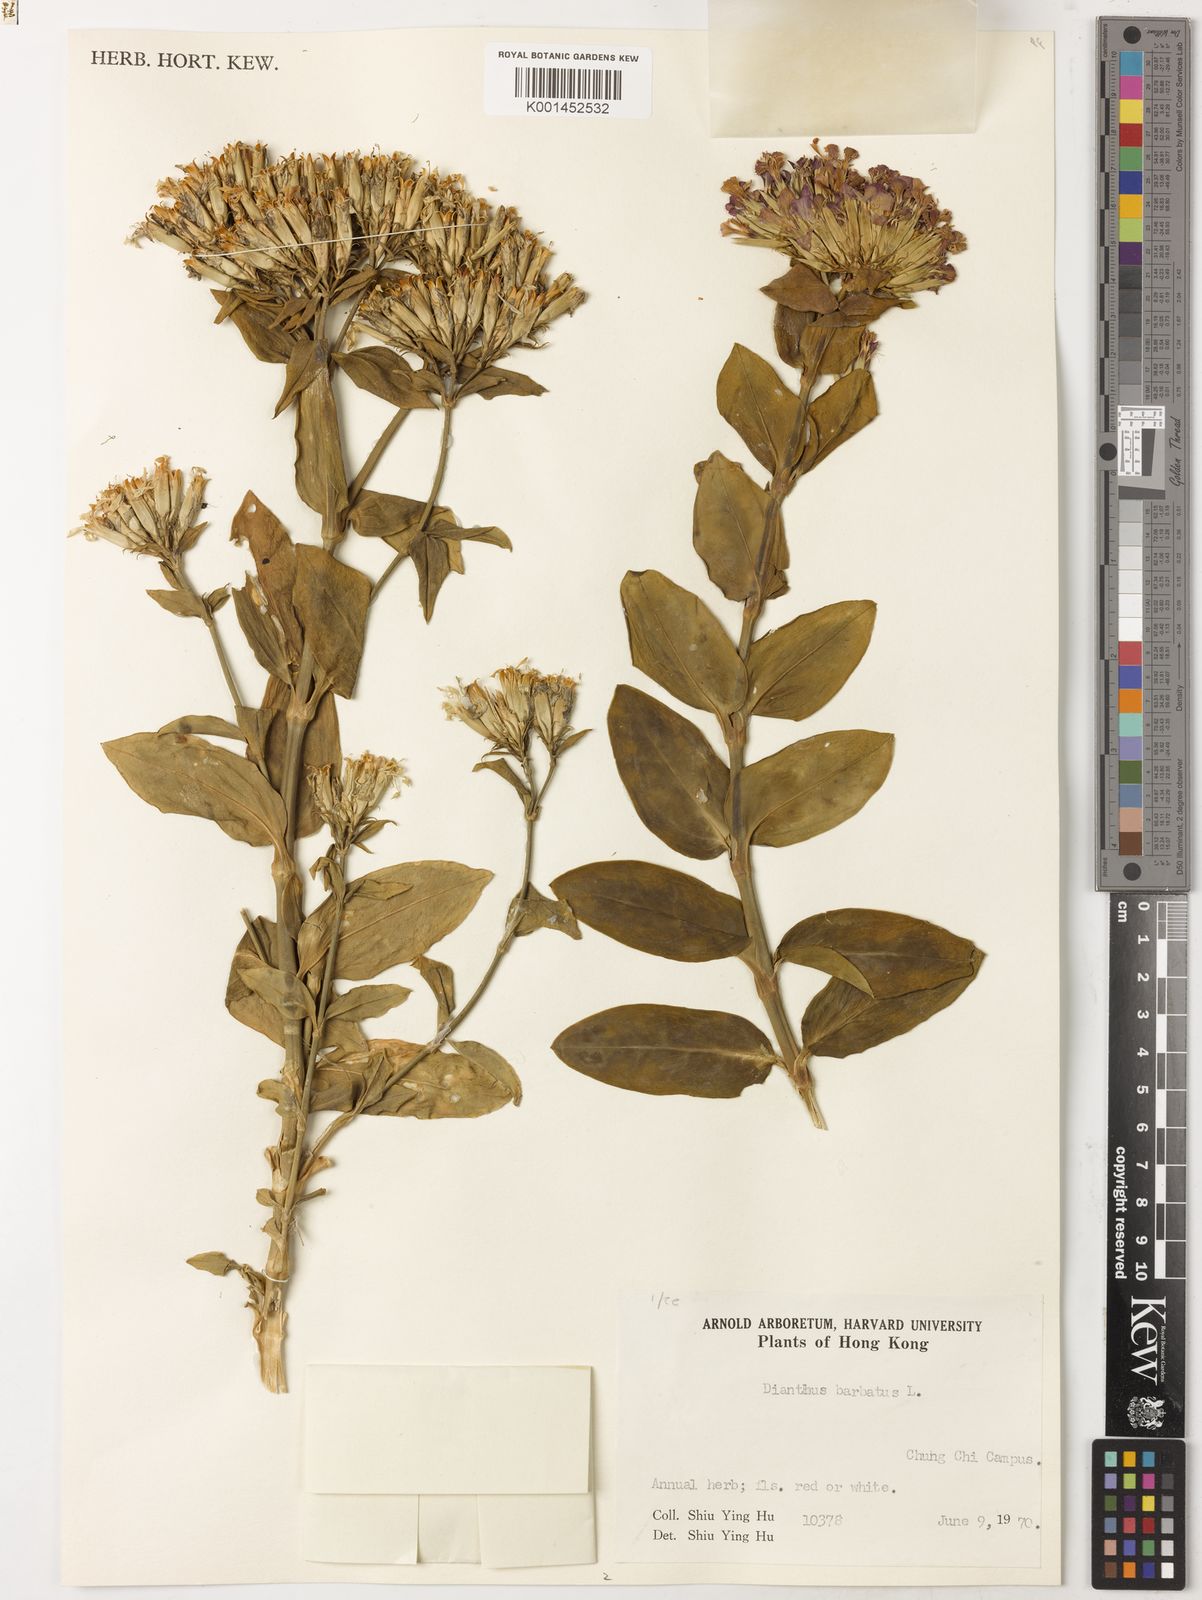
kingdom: Plantae
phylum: Tracheophyta
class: Magnoliopsida
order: Caryophyllales
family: Caryophyllaceae
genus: Dianthus
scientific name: Dianthus barbatus
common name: Sweet-william
